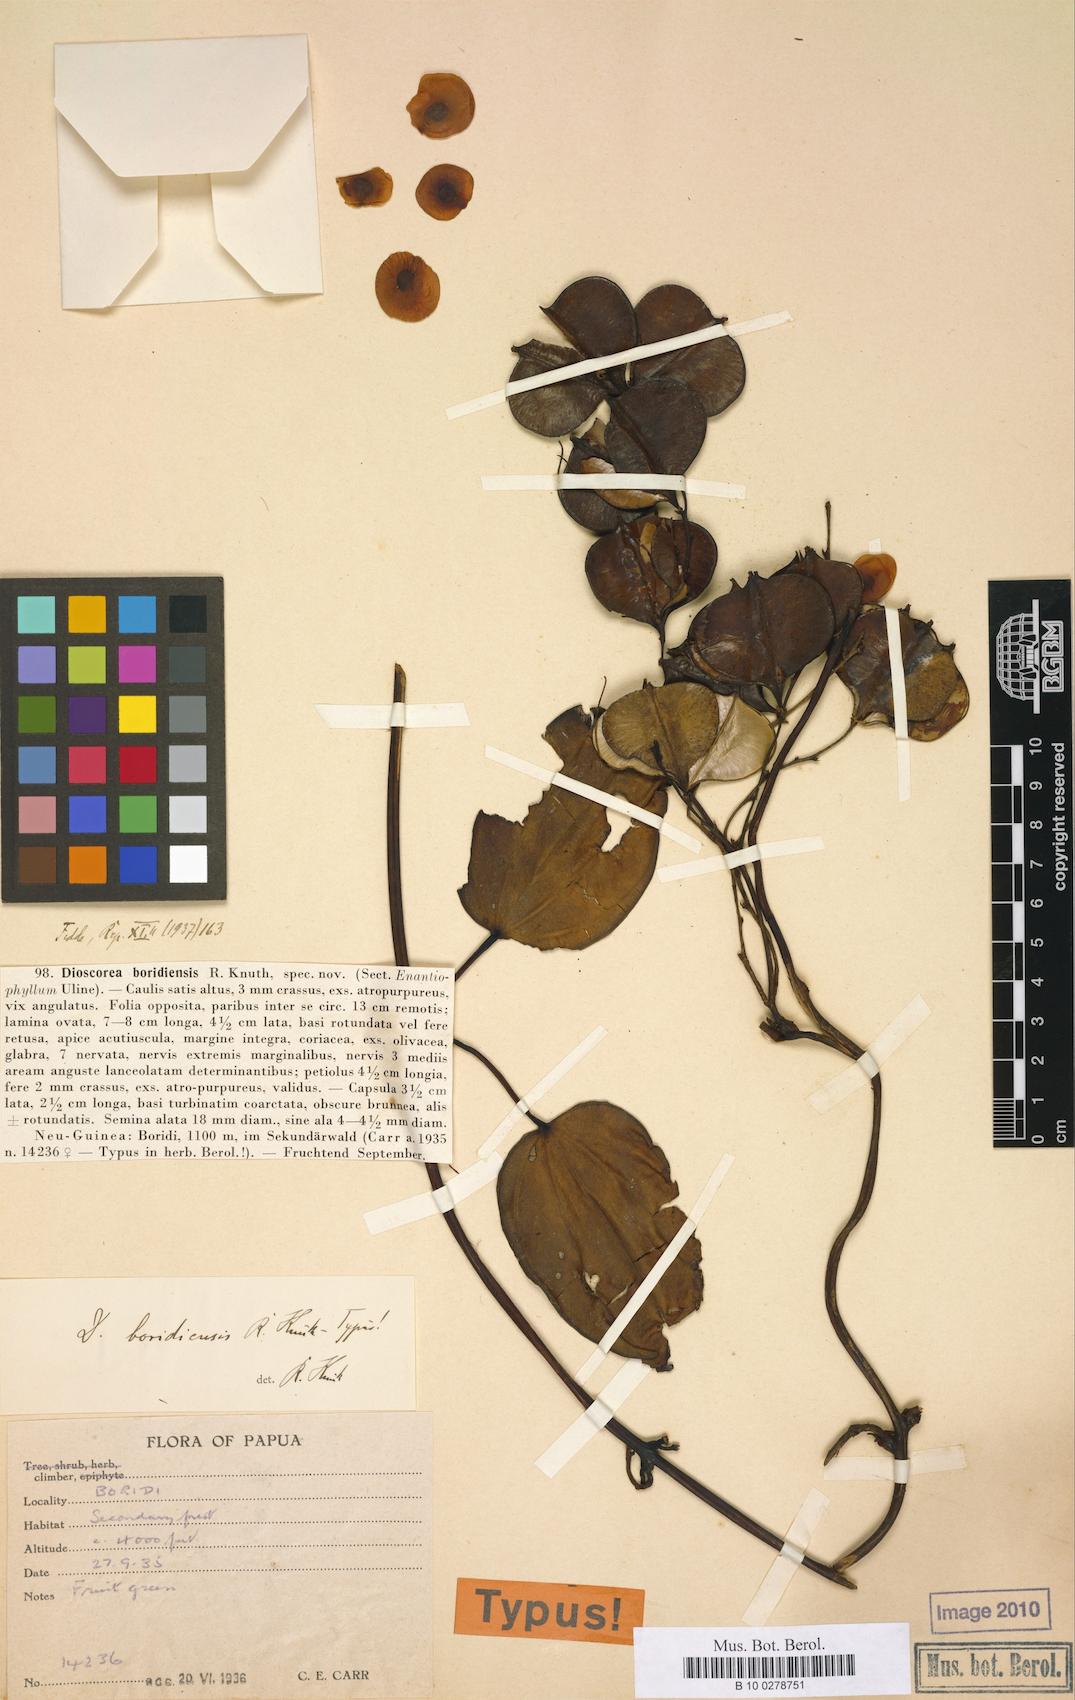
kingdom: Plantae
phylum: Tracheophyta
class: Liliopsida
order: Dioscoreales
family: Dioscoreaceae
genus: Dioscorea
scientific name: Dioscorea boridiensis
